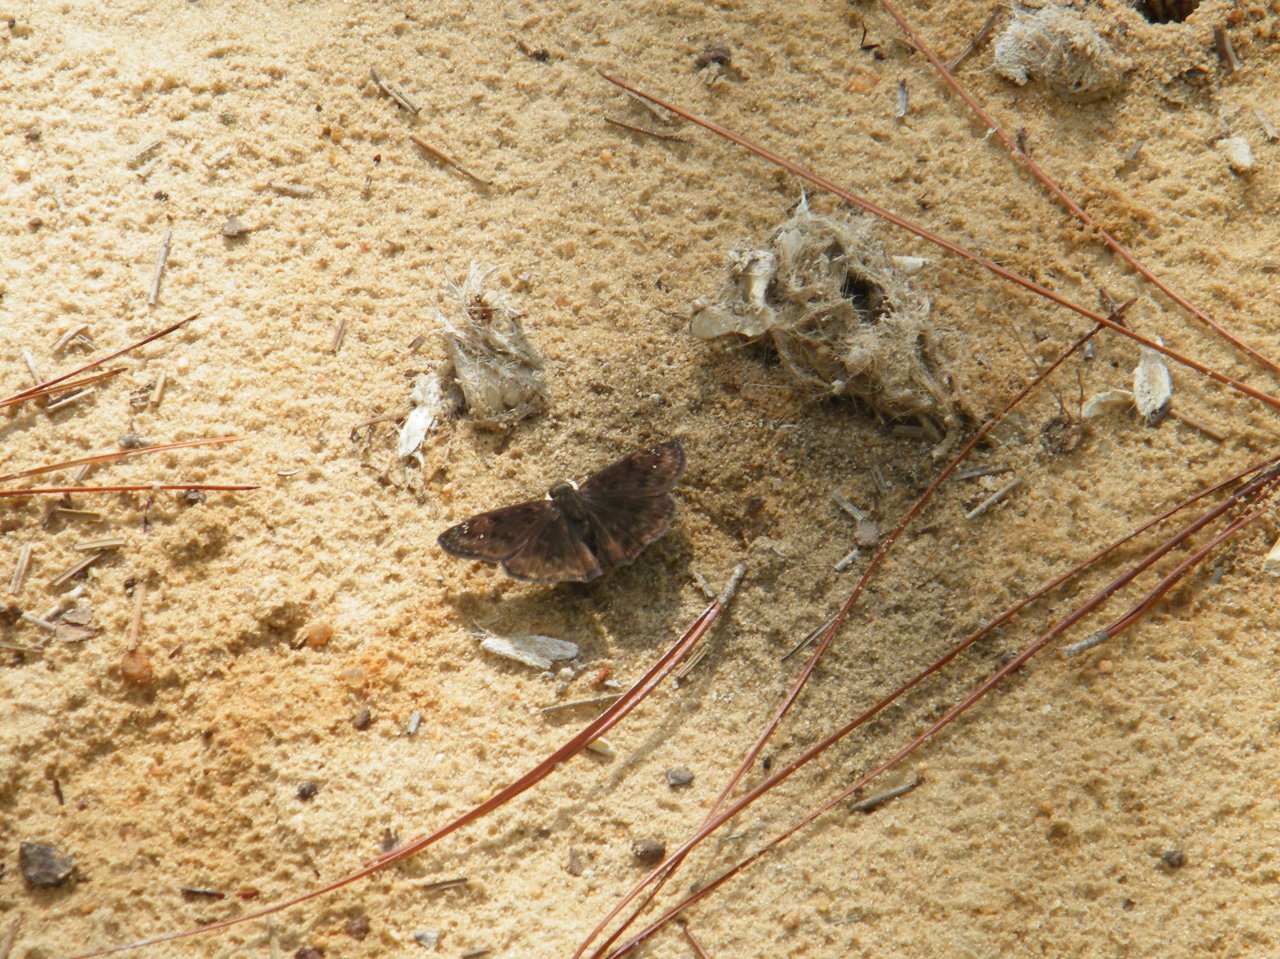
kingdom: Animalia
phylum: Arthropoda
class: Insecta
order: Lepidoptera
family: Hesperiidae
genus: Gesta
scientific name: Gesta
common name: Horace's Duskywing
